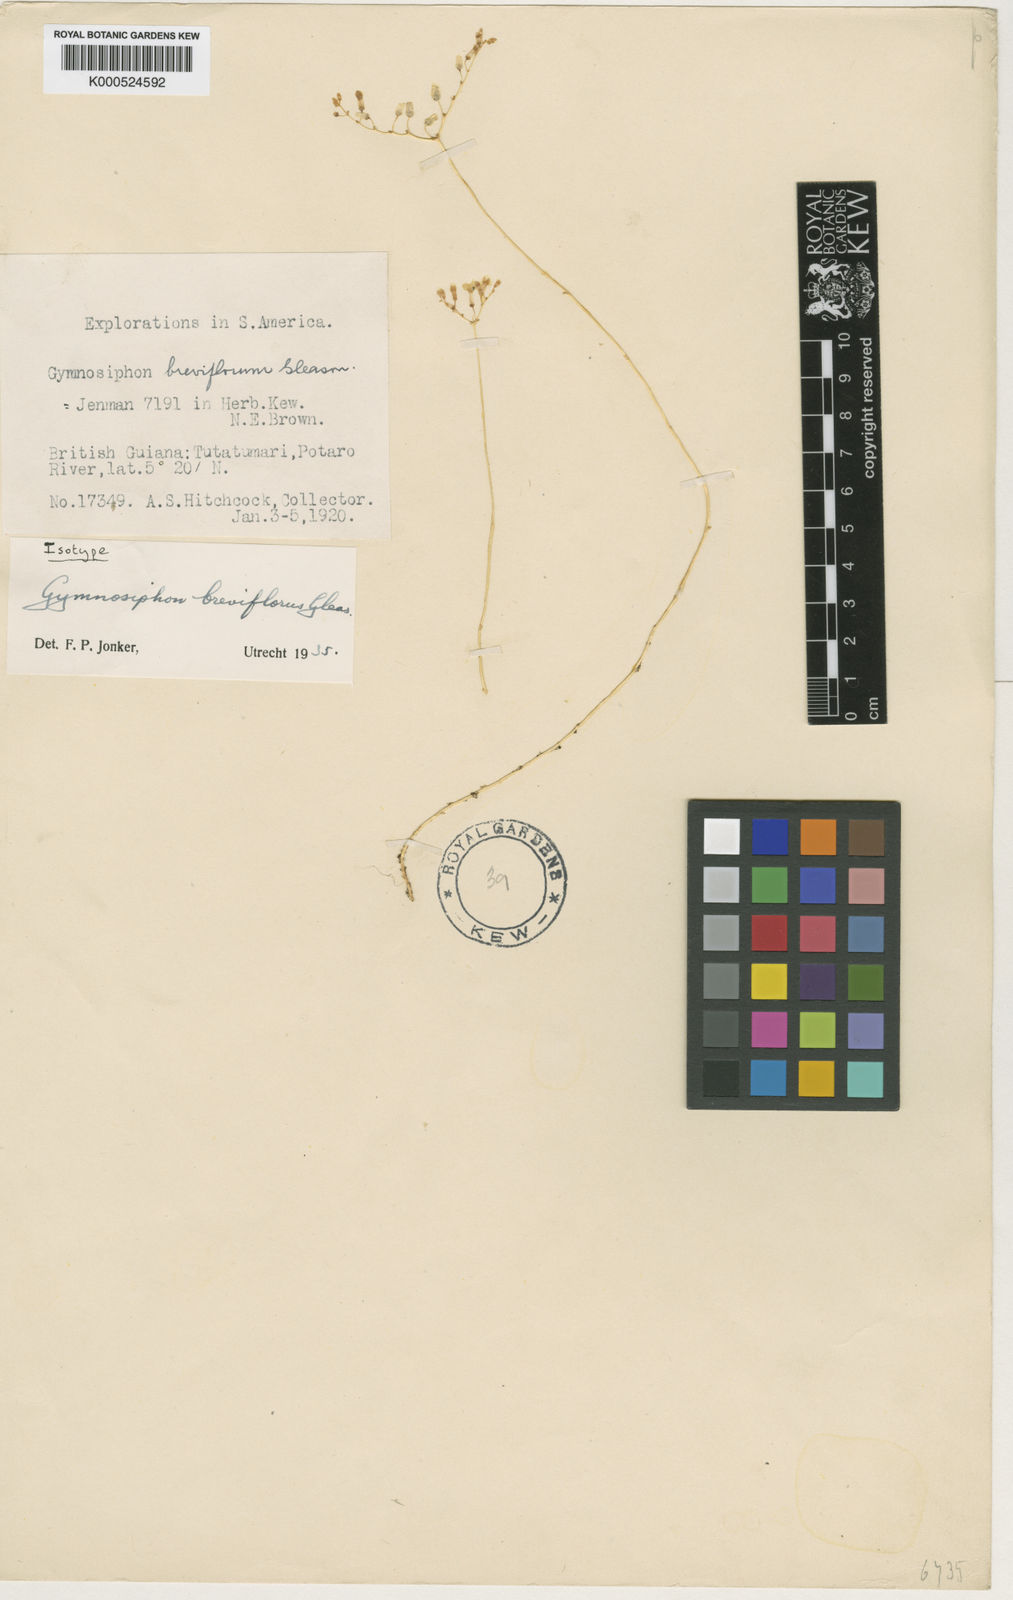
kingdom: Plantae
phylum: Tracheophyta
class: Liliopsida
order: Dioscoreales
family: Burmanniaceae
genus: Gymnosiphon
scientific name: Gymnosiphon breviflorus
